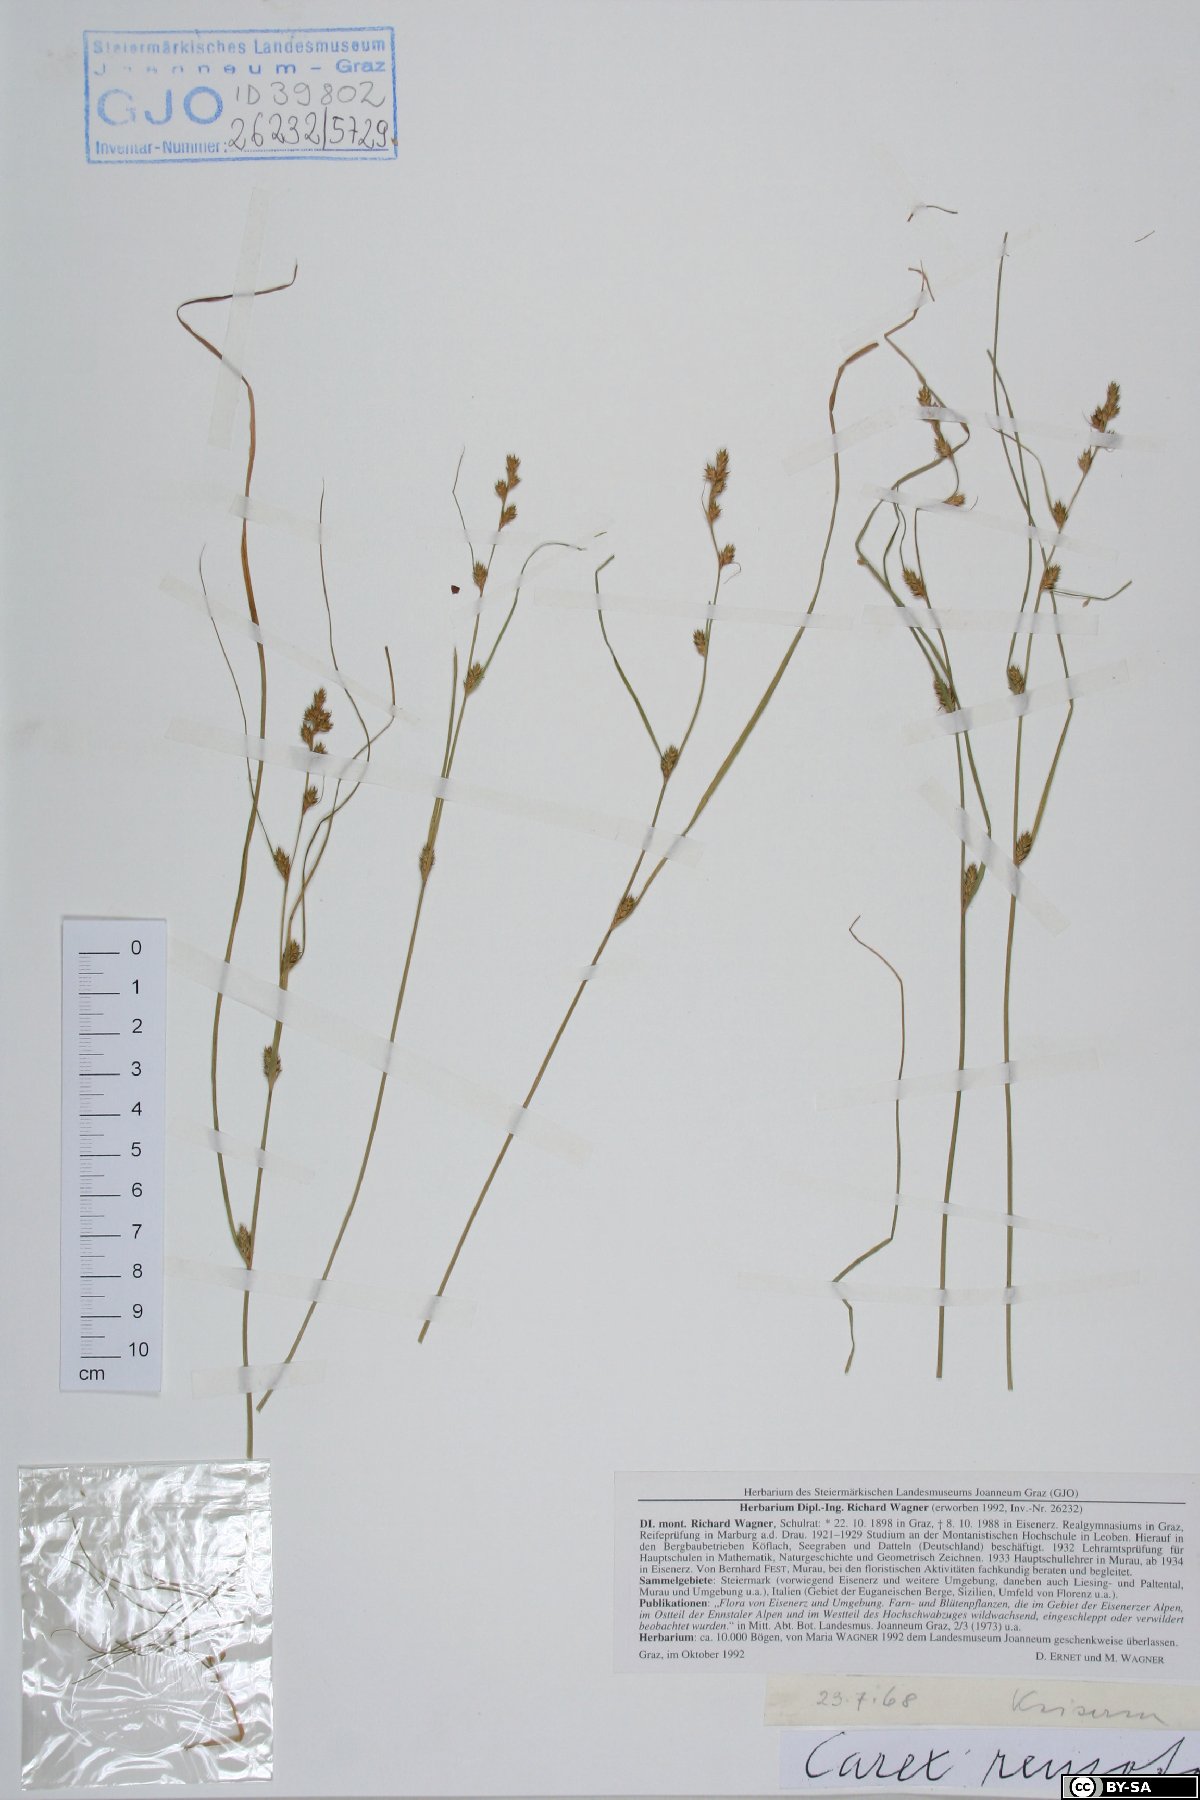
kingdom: Plantae
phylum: Tracheophyta
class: Liliopsida
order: Poales
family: Cyperaceae
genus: Carex
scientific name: Carex remota
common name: Remote sedge
